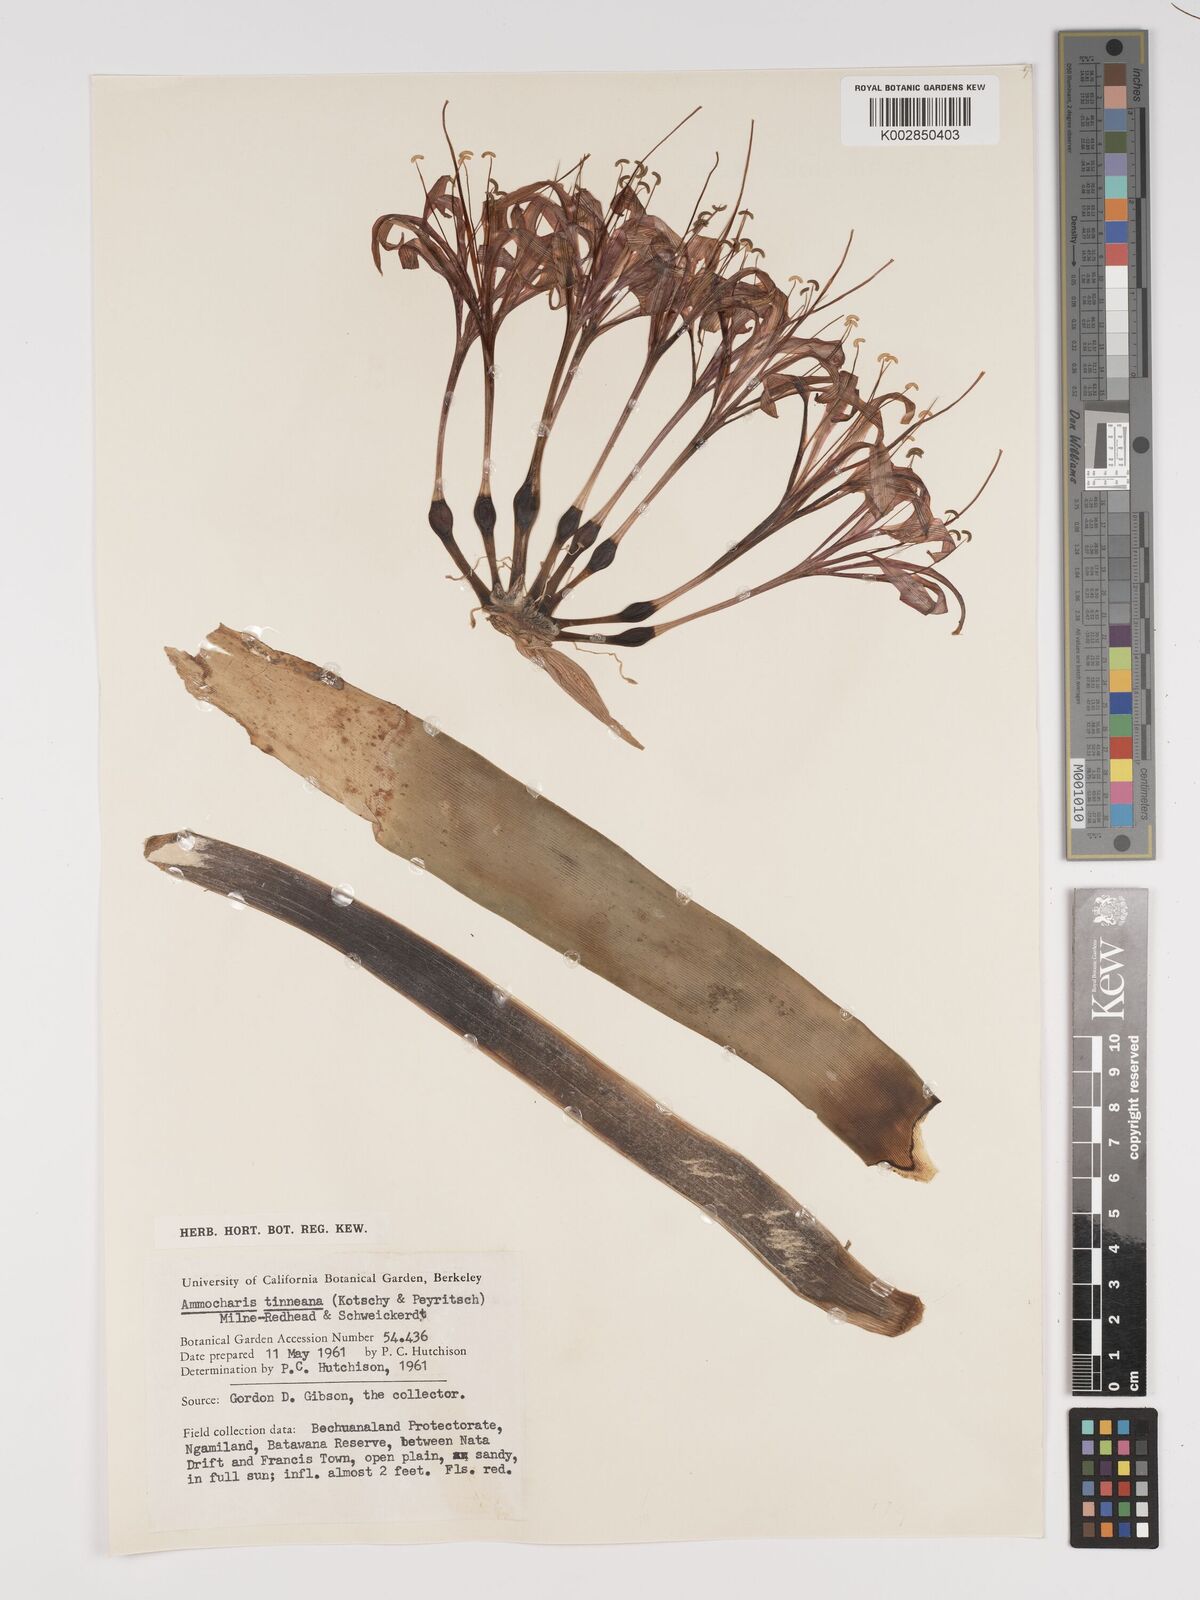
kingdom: Plantae
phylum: Tracheophyta
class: Liliopsida
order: Asparagales
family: Amaryllidaceae
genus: Ammocharis
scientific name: Ammocharis tinneana
